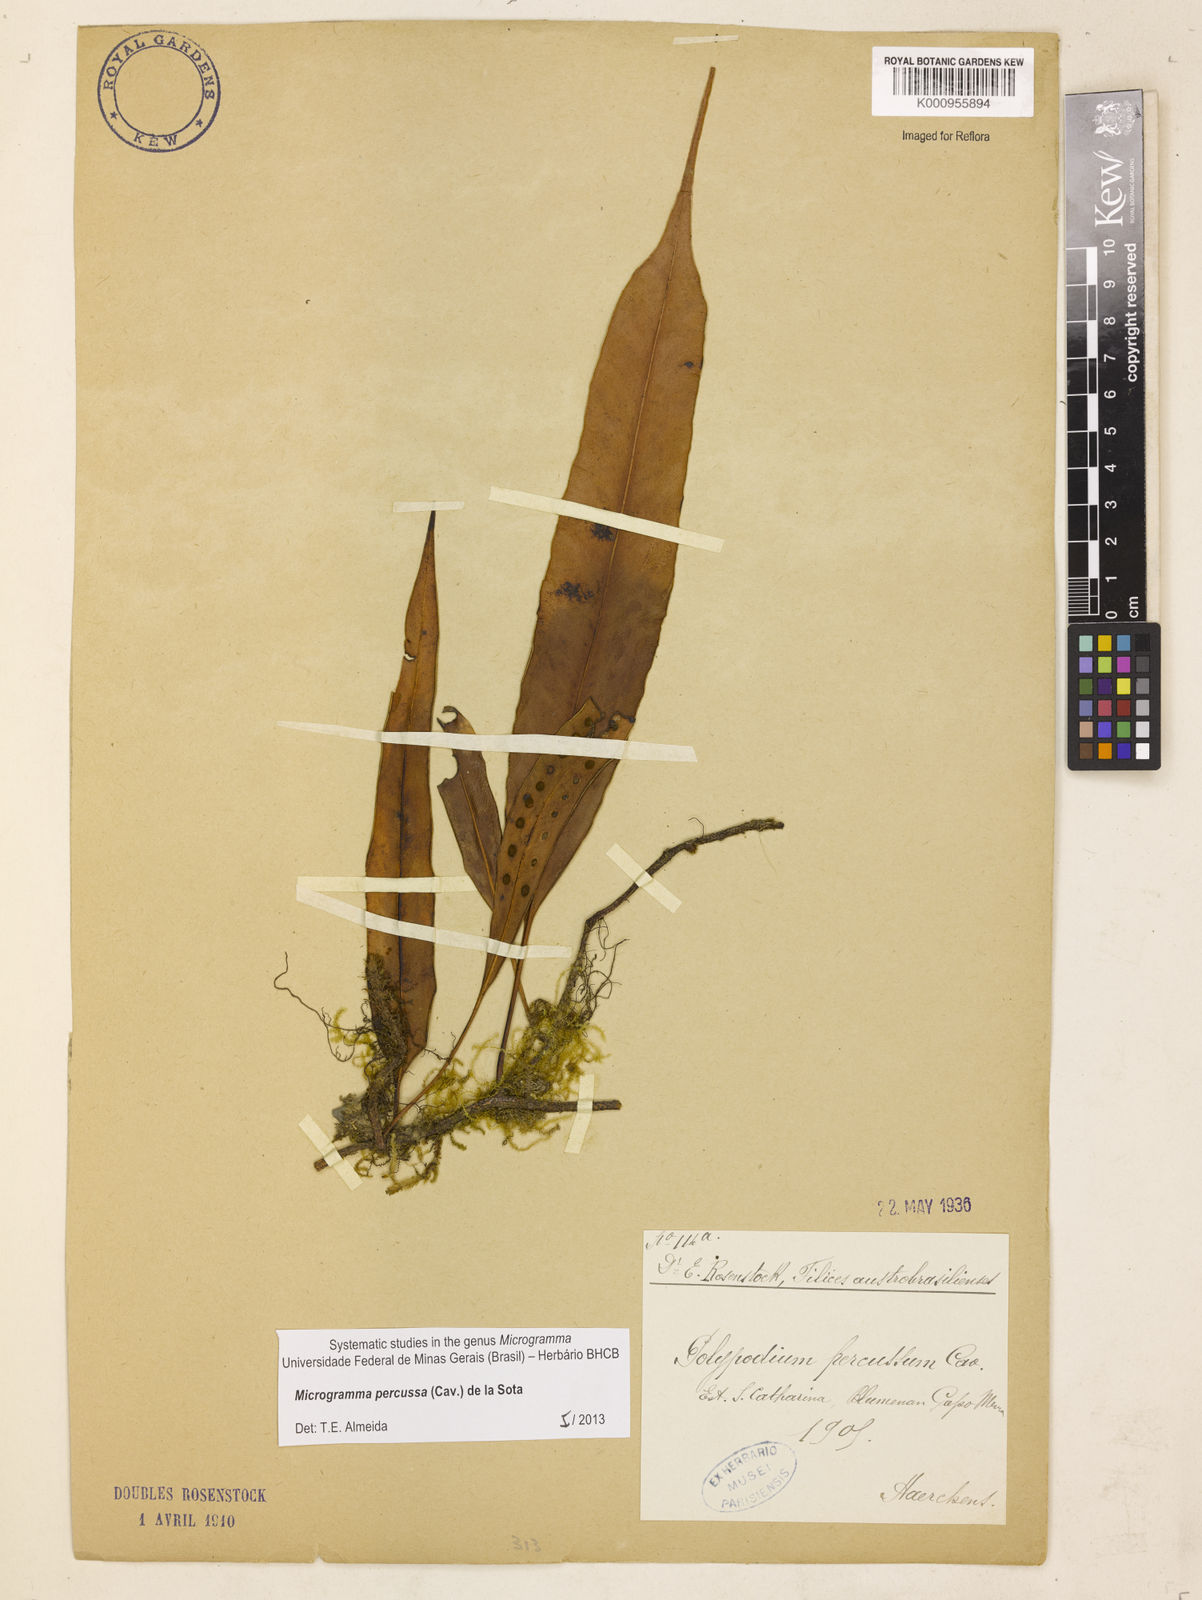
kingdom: Plantae
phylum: Tracheophyta
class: Polypodiopsida
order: Polypodiales
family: Polypodiaceae
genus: Microgramma
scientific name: Microgramma percussa
